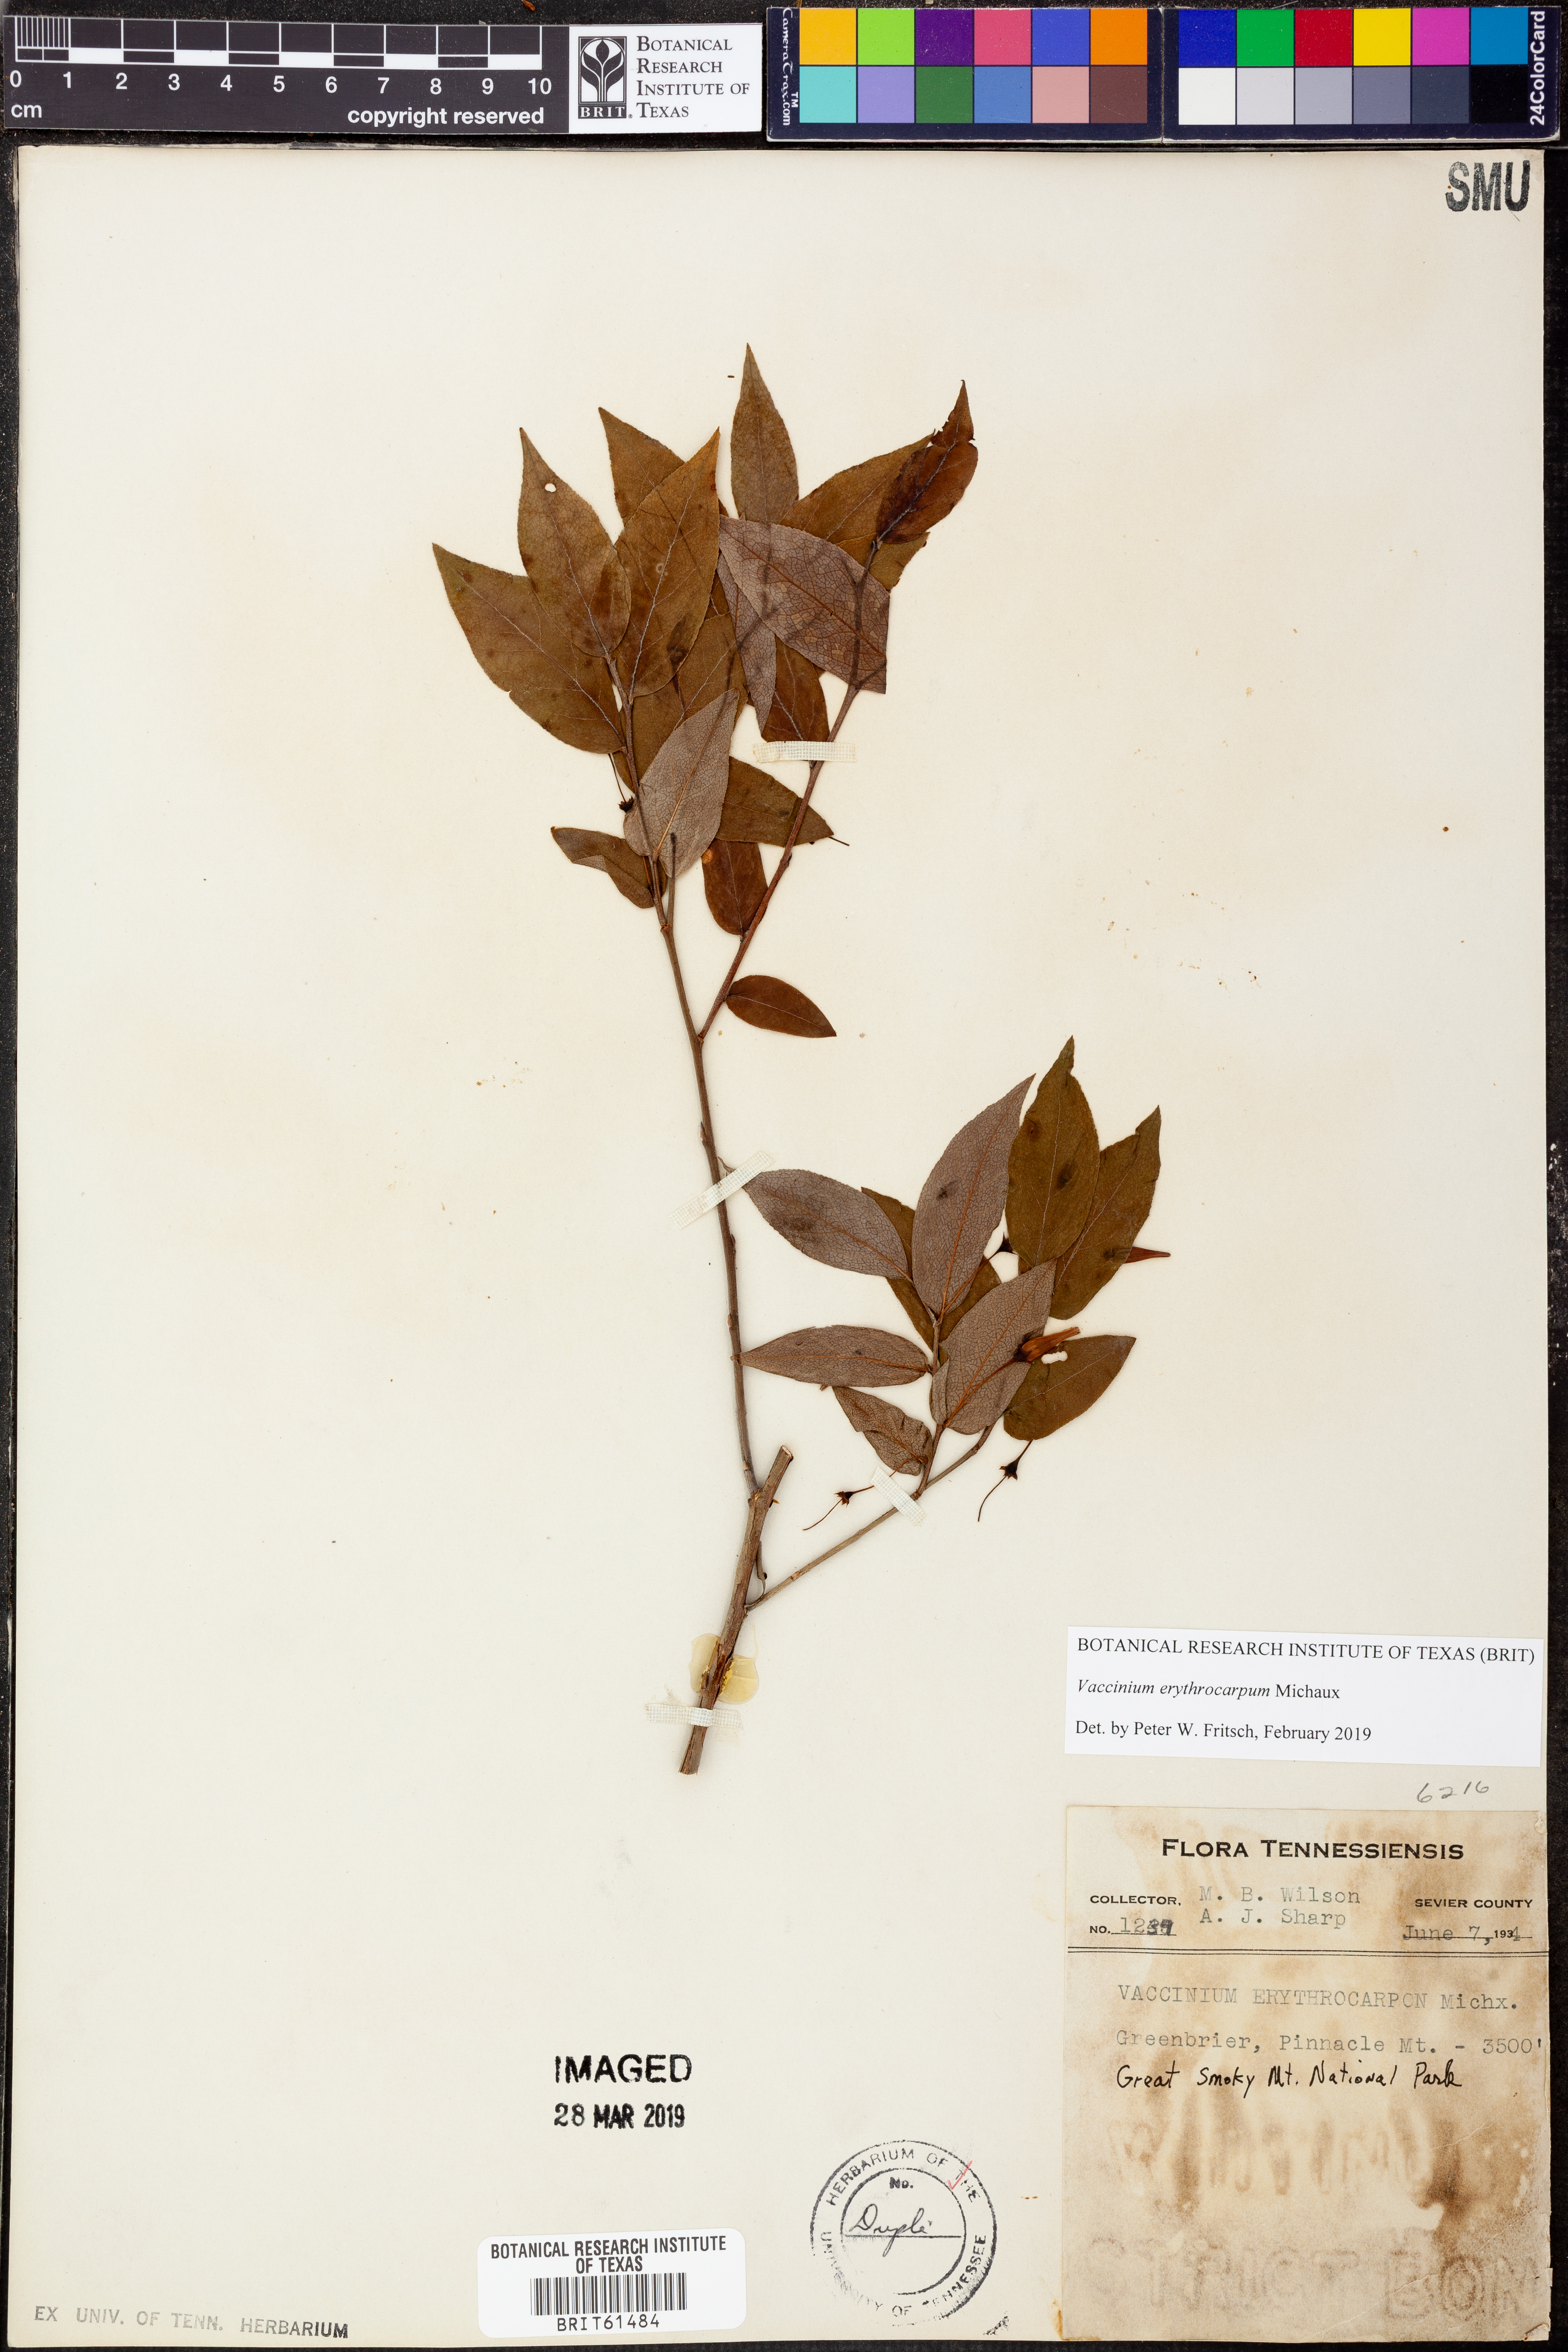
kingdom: Plantae
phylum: Tracheophyta
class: Magnoliopsida
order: Ericales
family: Ericaceae
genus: Vaccinium
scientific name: Vaccinium erythrocarpum
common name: Bearberry
